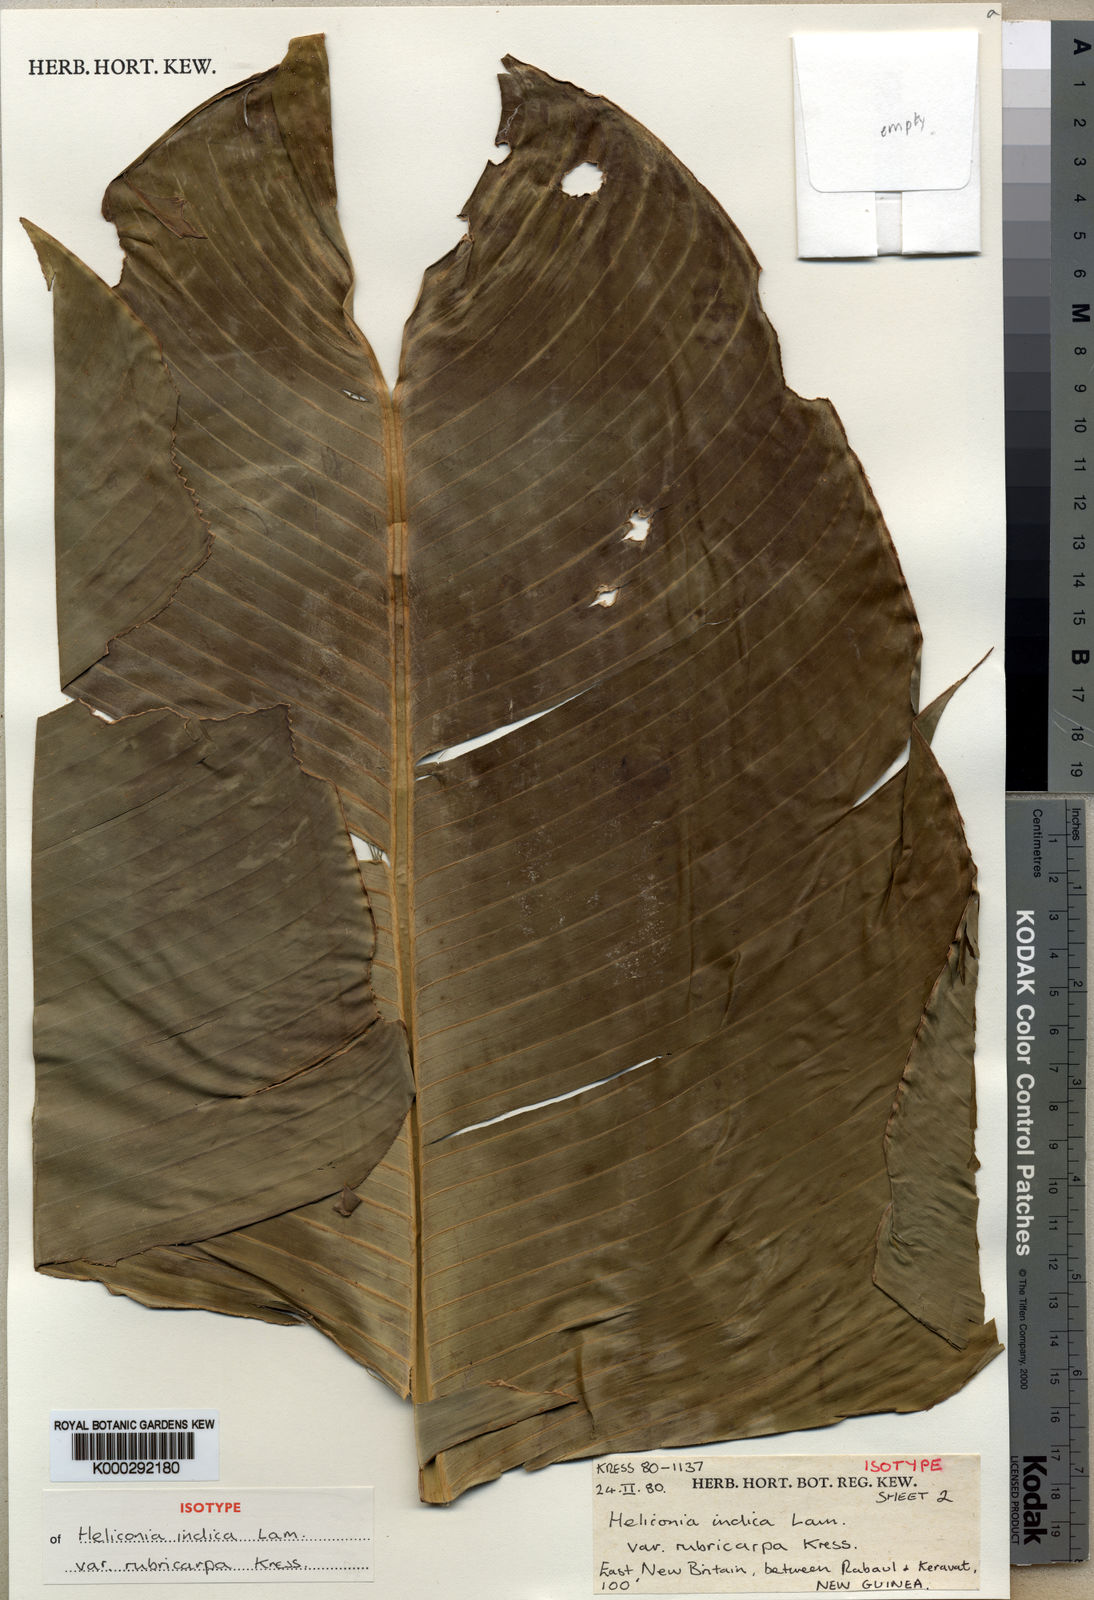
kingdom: Plantae
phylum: Tracheophyta
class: Liliopsida
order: Zingiberales
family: Heliconiaceae
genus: Heliconia
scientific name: Heliconia indica
